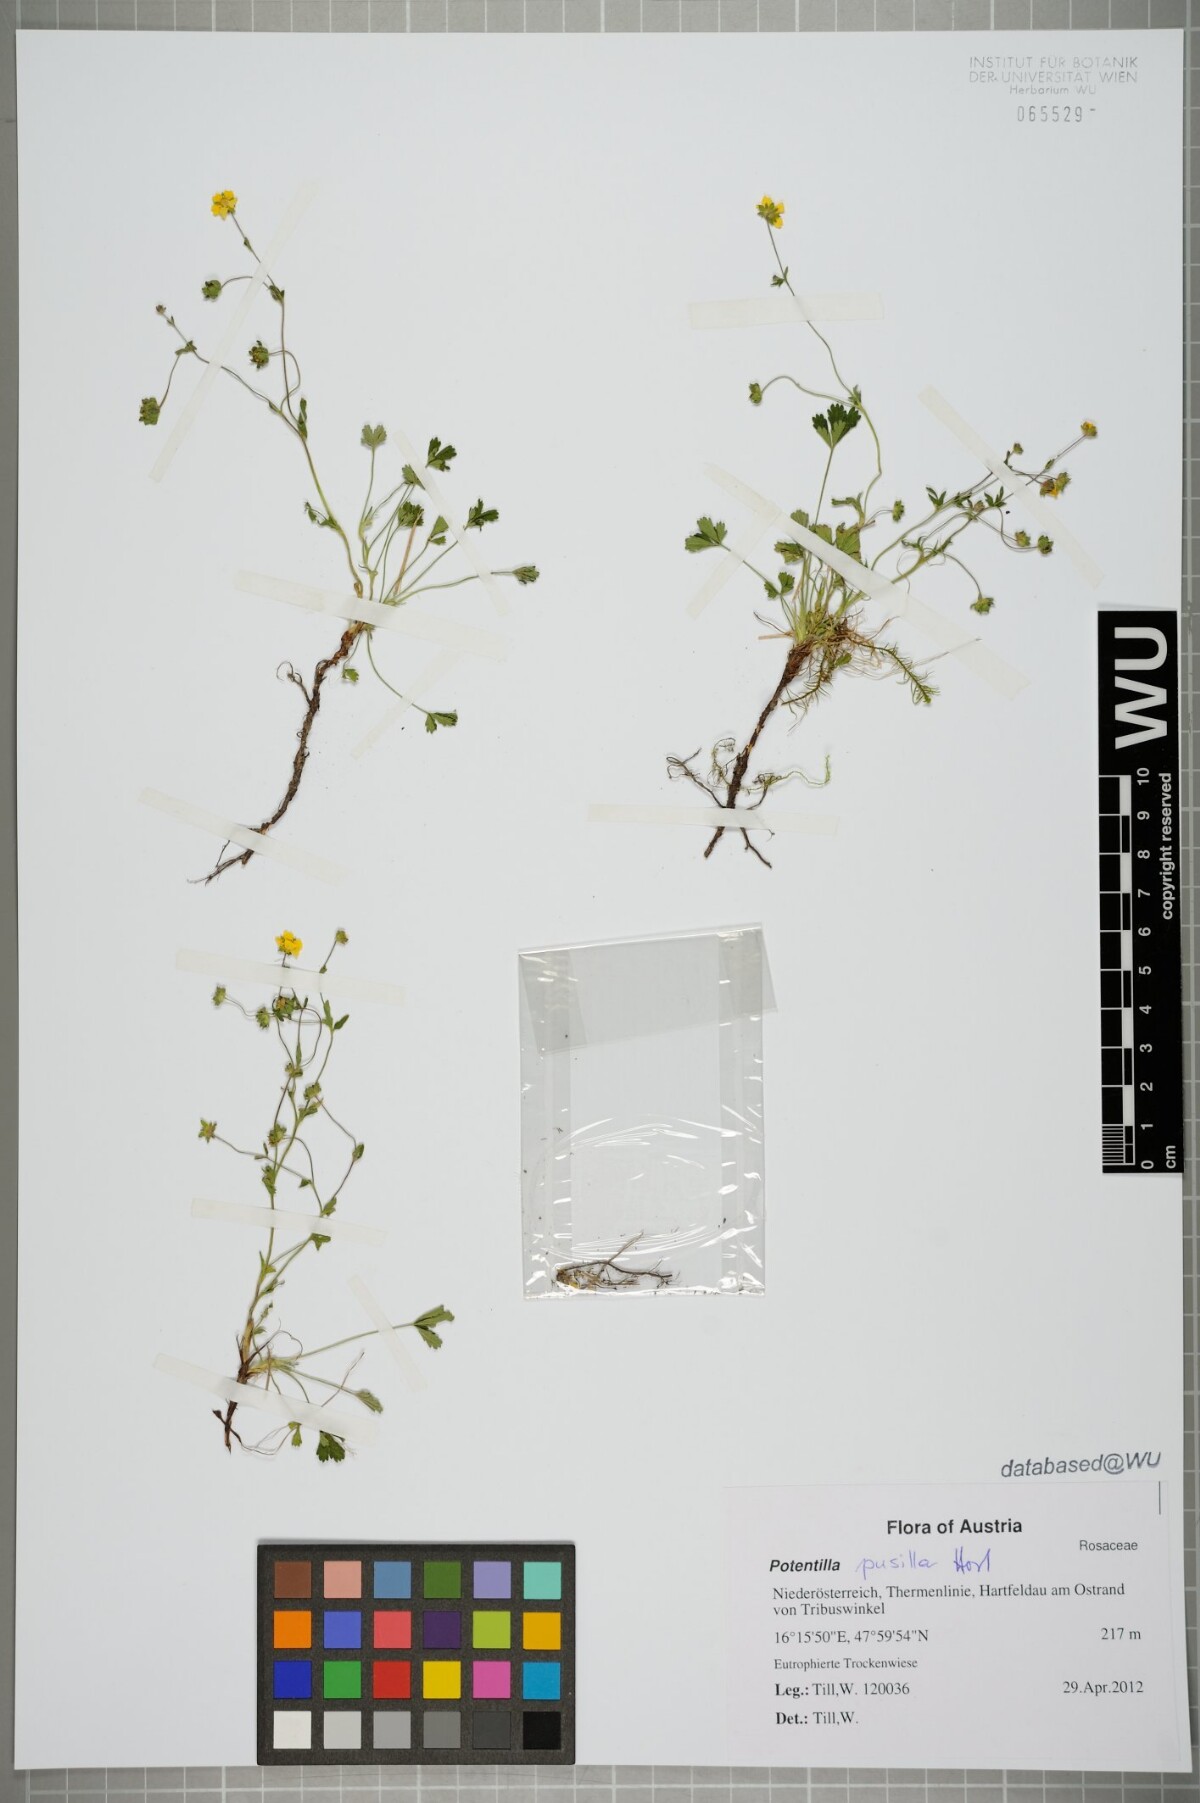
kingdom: Plantae
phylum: Tracheophyta
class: Magnoliopsida
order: Rosales
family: Rosaceae
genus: Potentilla
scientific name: Potentilla pusilla
